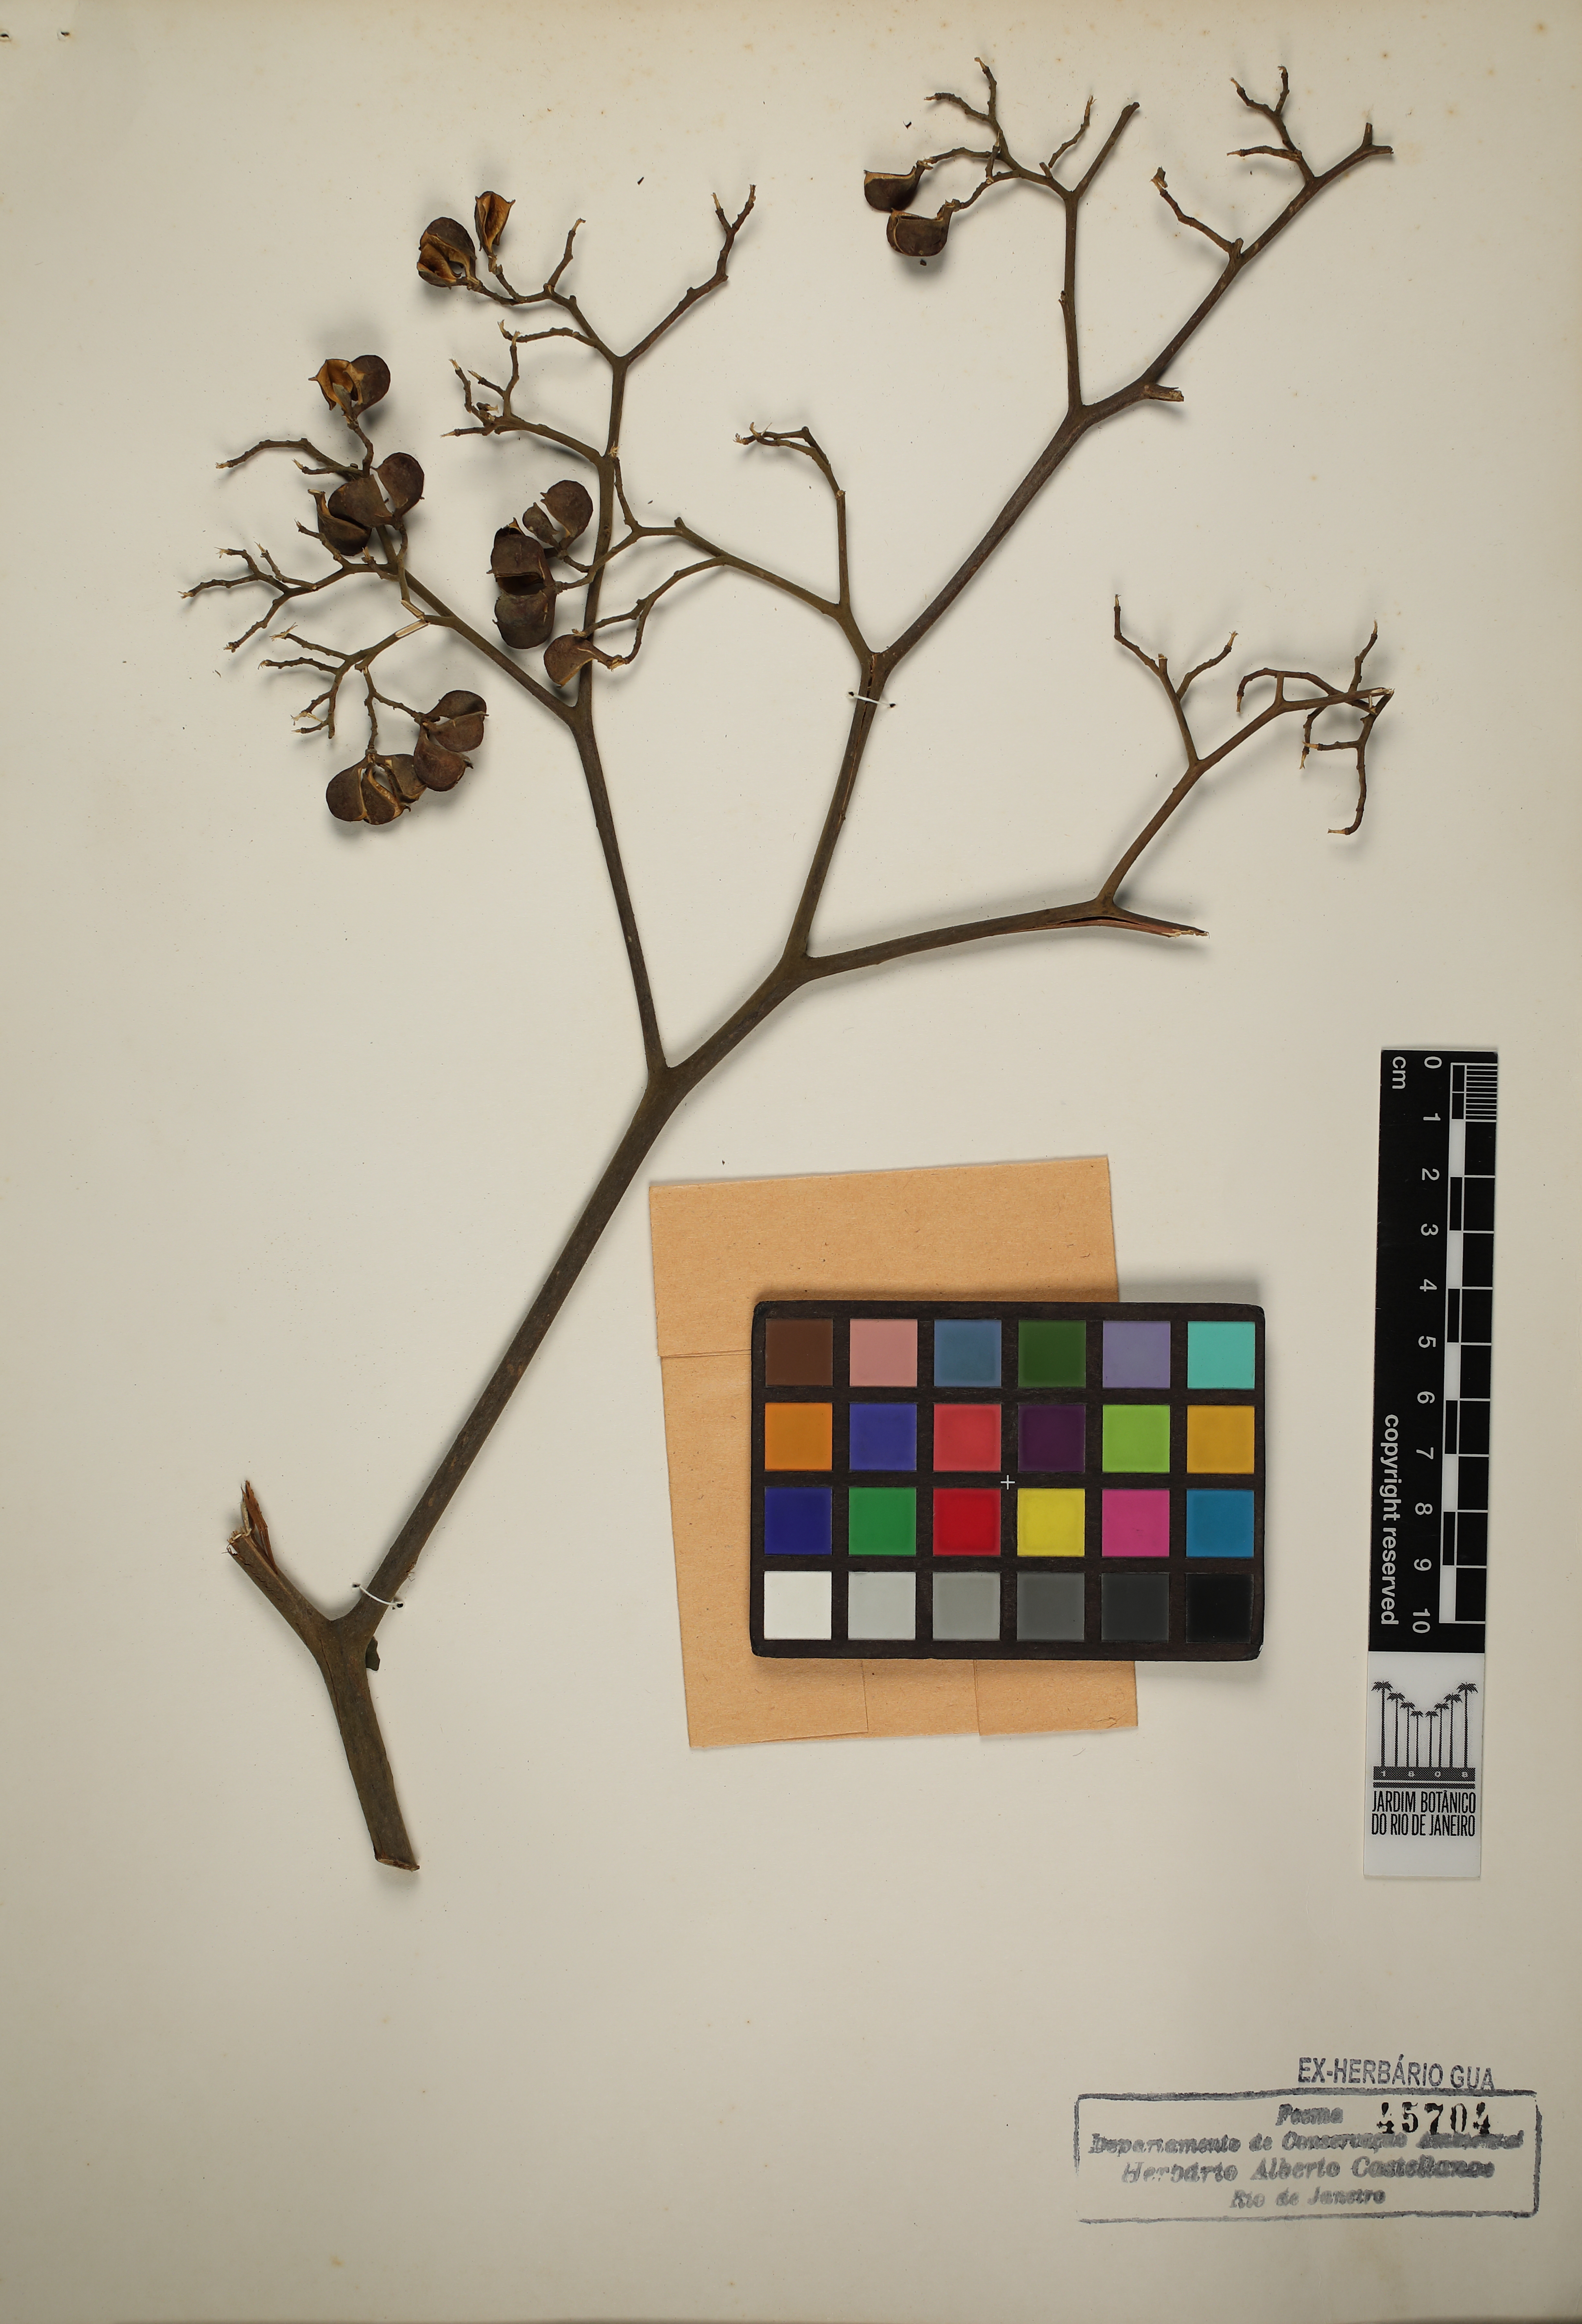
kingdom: Plantae
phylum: Tracheophyta
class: Magnoliopsida
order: Sapindales
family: Rutaceae
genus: Dictyoloma
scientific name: Dictyoloma vandellianum
